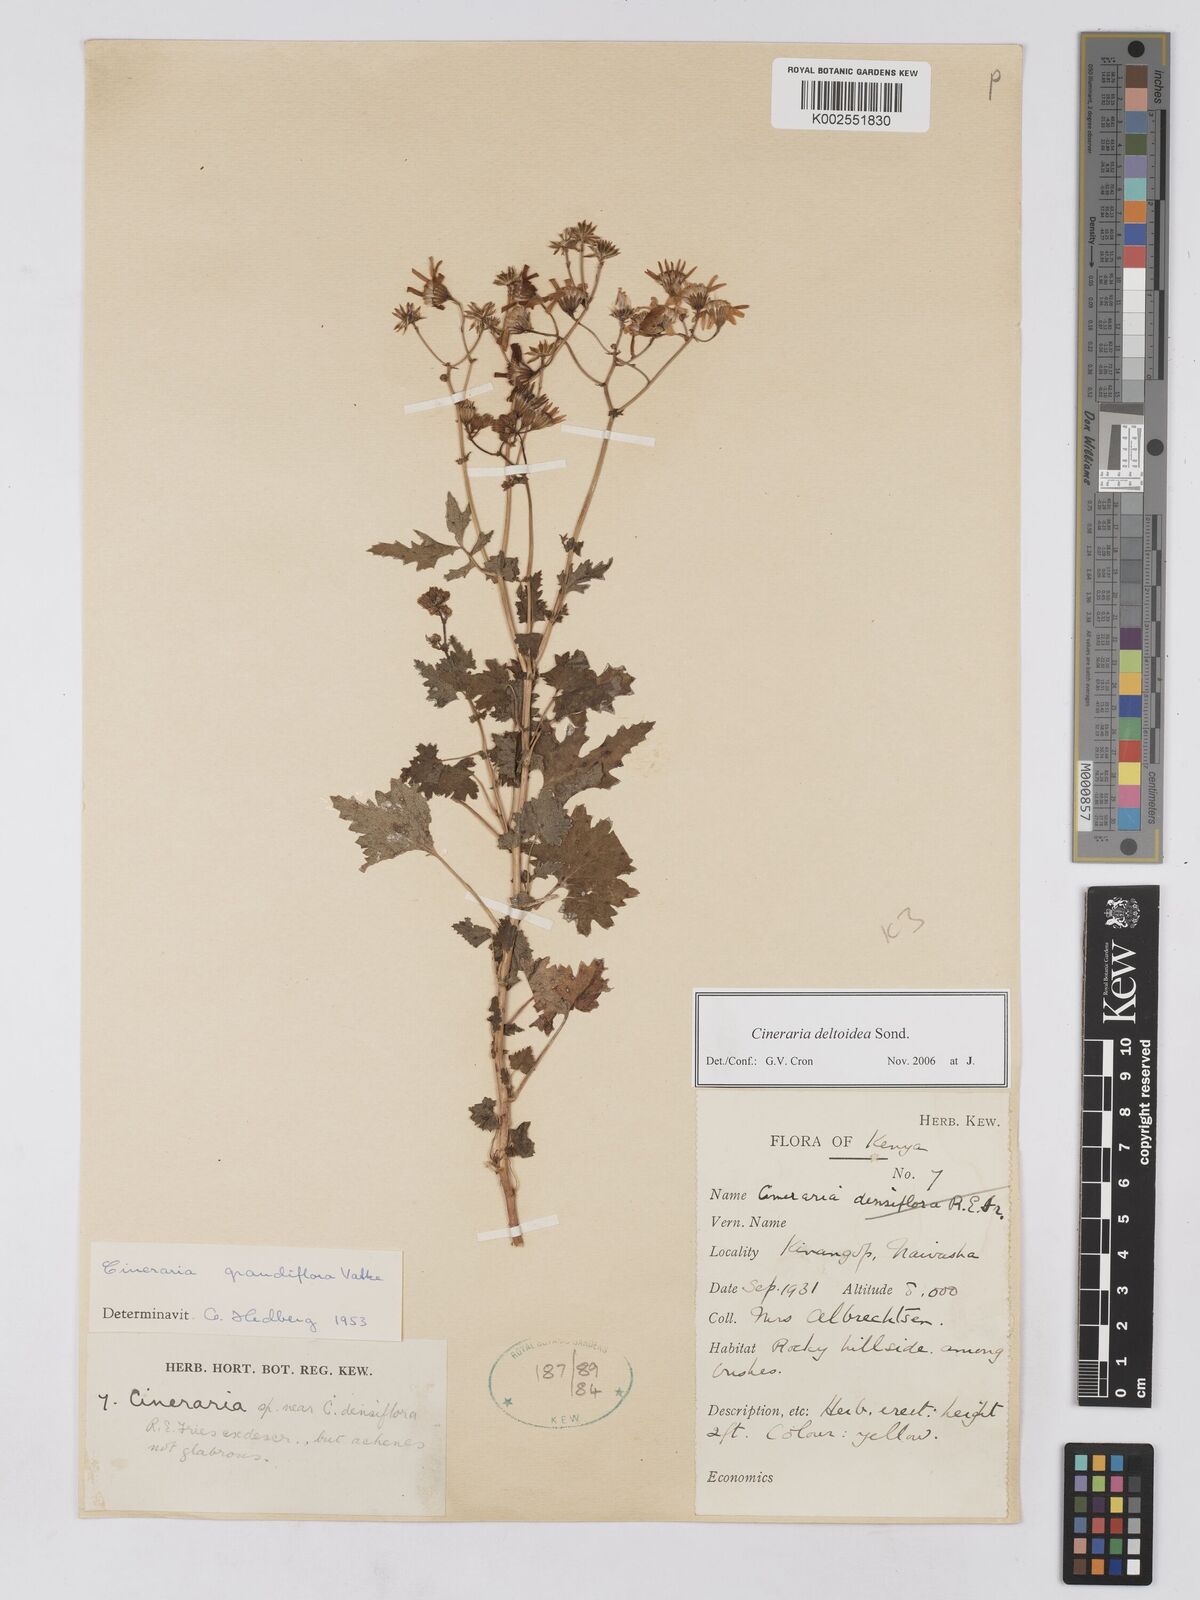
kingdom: Plantae
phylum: Tracheophyta
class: Magnoliopsida
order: Asterales
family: Asteraceae
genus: Cineraria
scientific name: Cineraria deltoidea
